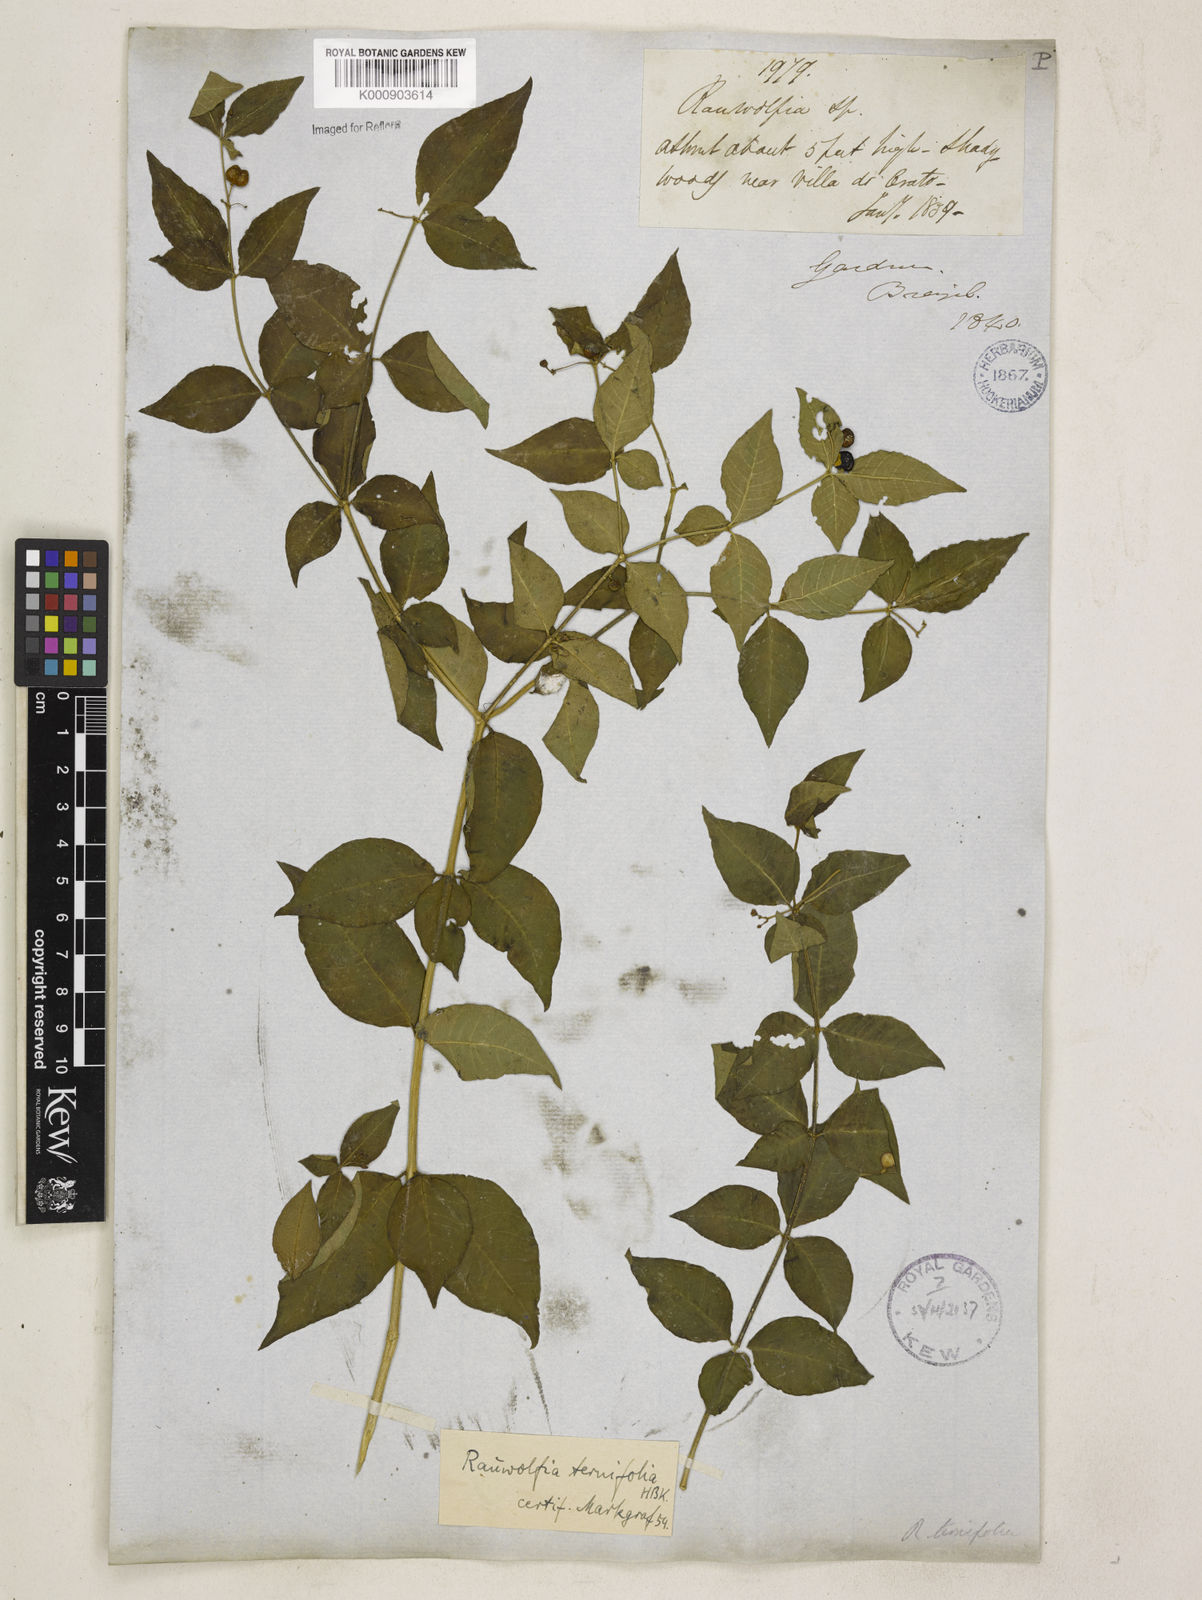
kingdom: Plantae
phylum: Tracheophyta
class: Magnoliopsida
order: Gentianales
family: Apocynaceae
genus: Rauvolfia
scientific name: Rauvolfia
